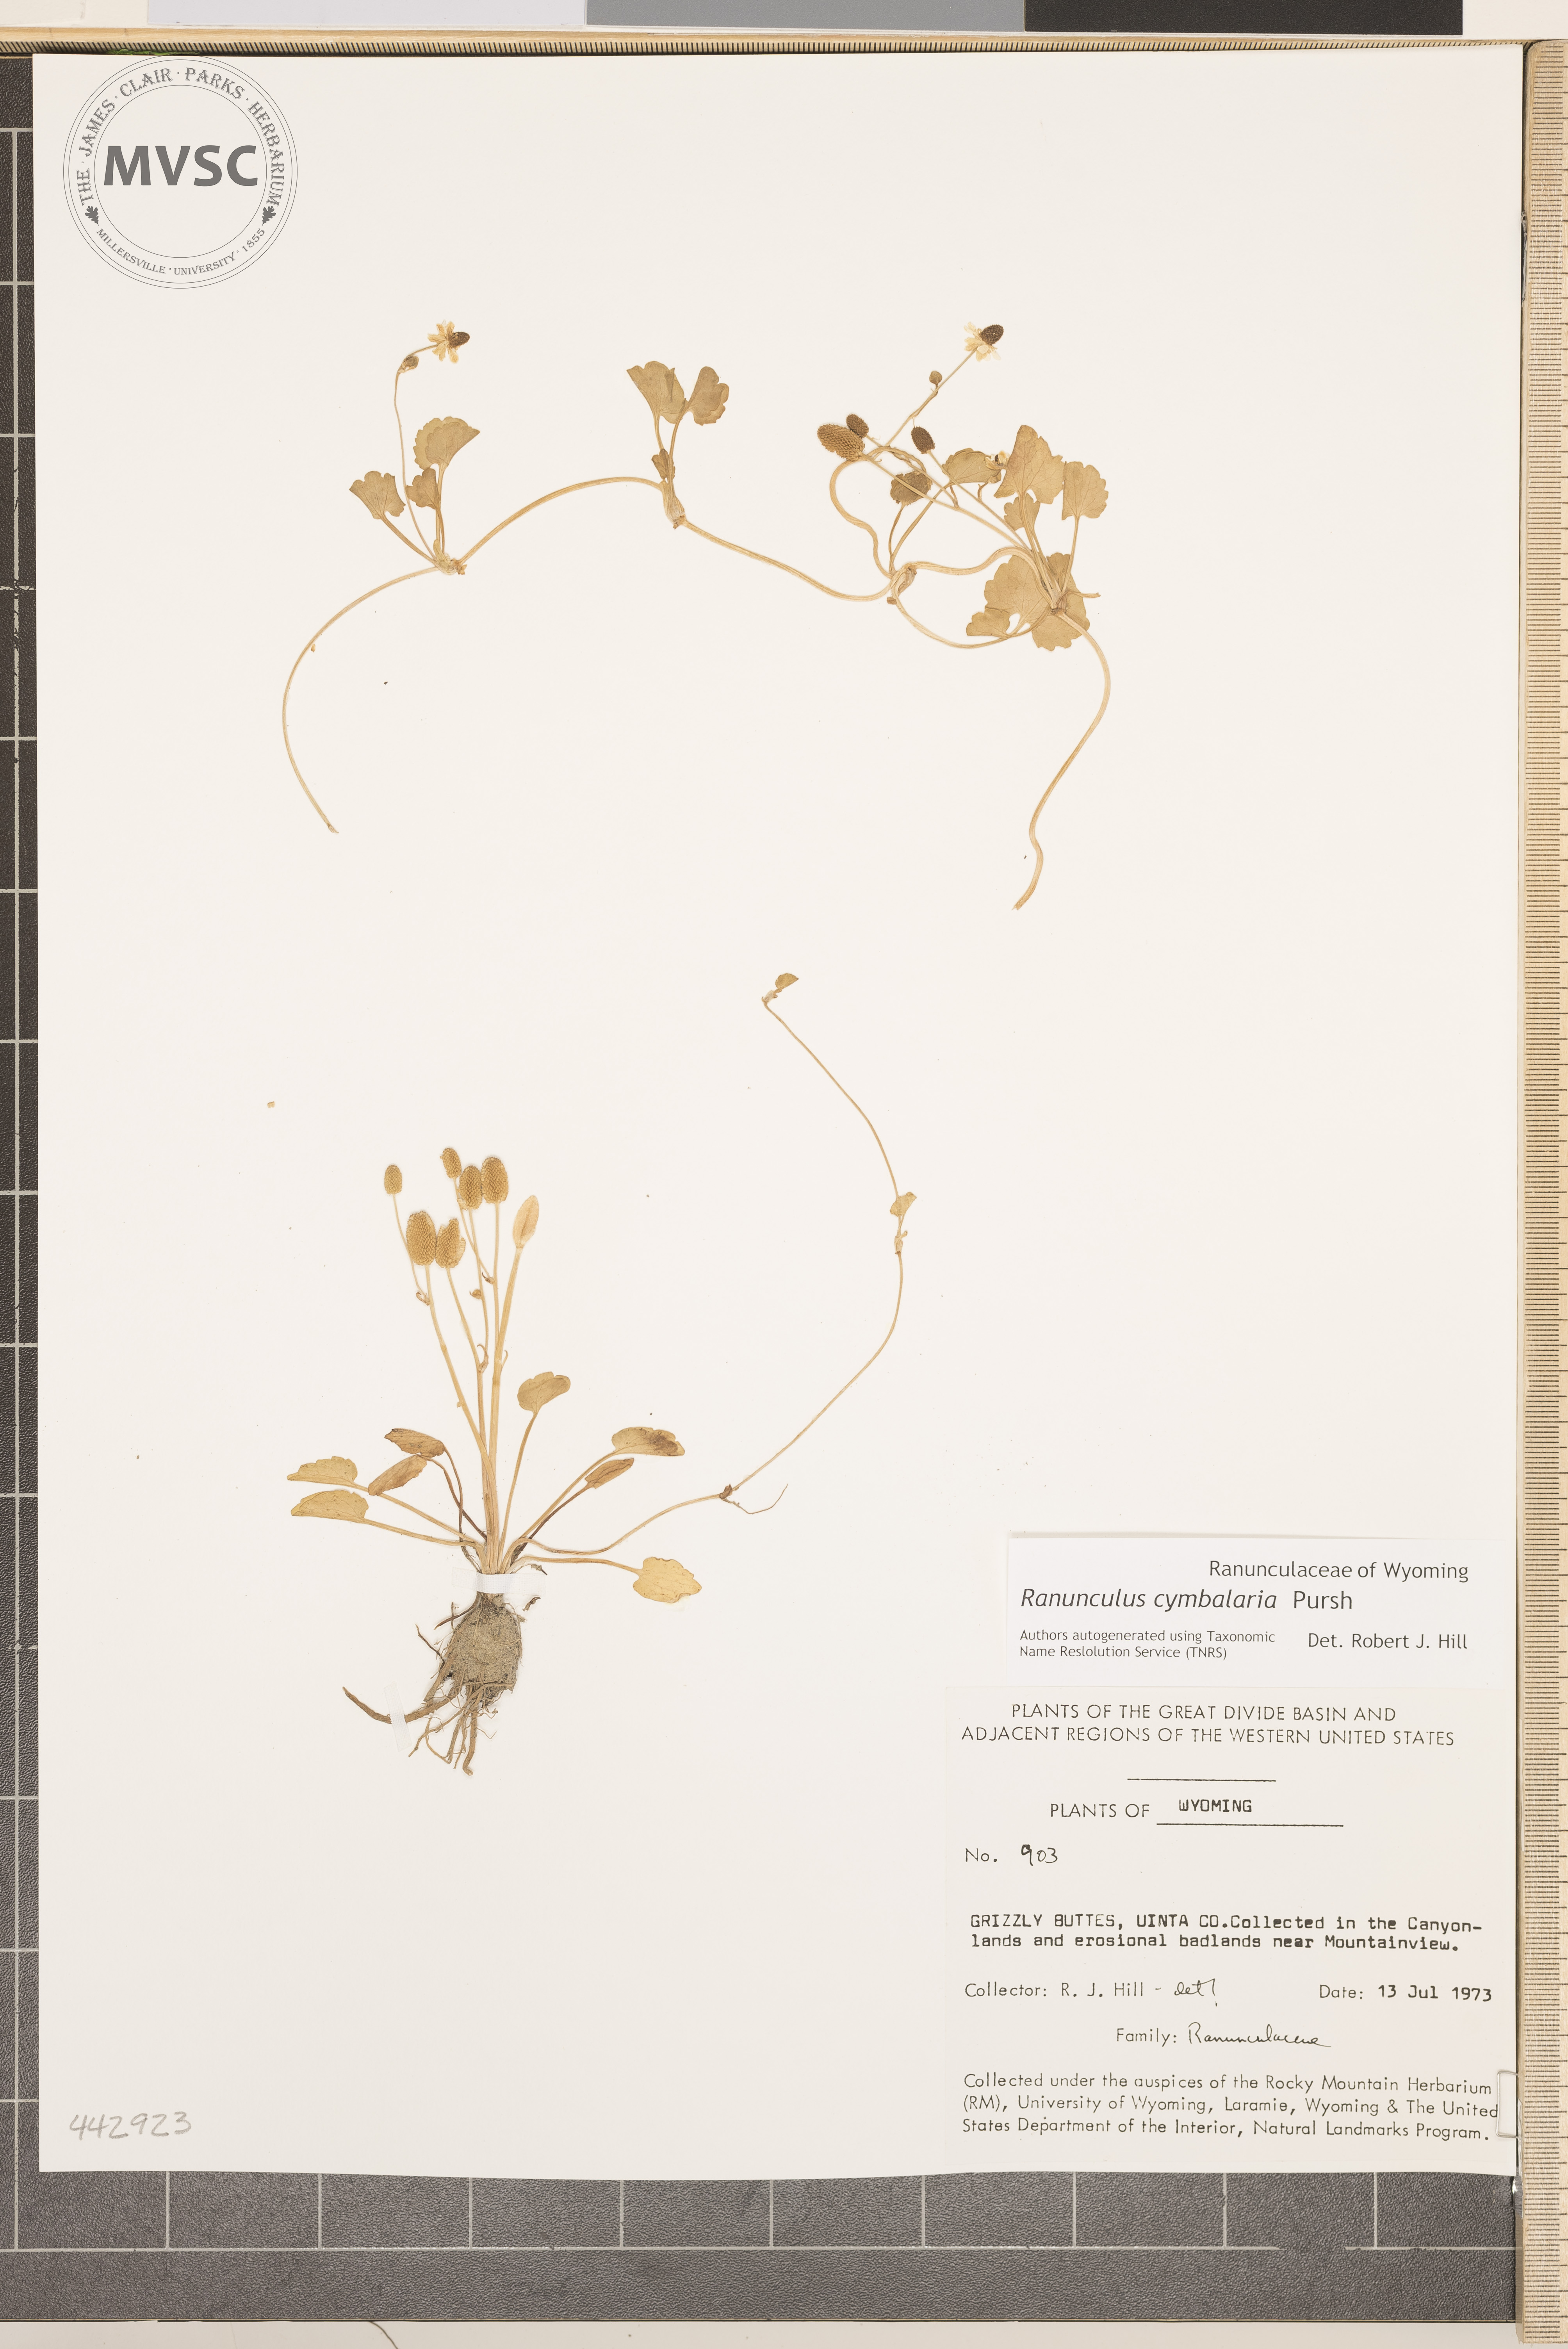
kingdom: Plantae
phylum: Tracheophyta
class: Magnoliopsida
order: Ranunculales
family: Ranunculaceae
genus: Halerpestes
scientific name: Halerpestes cymbalaria
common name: Seaside crowfoot
